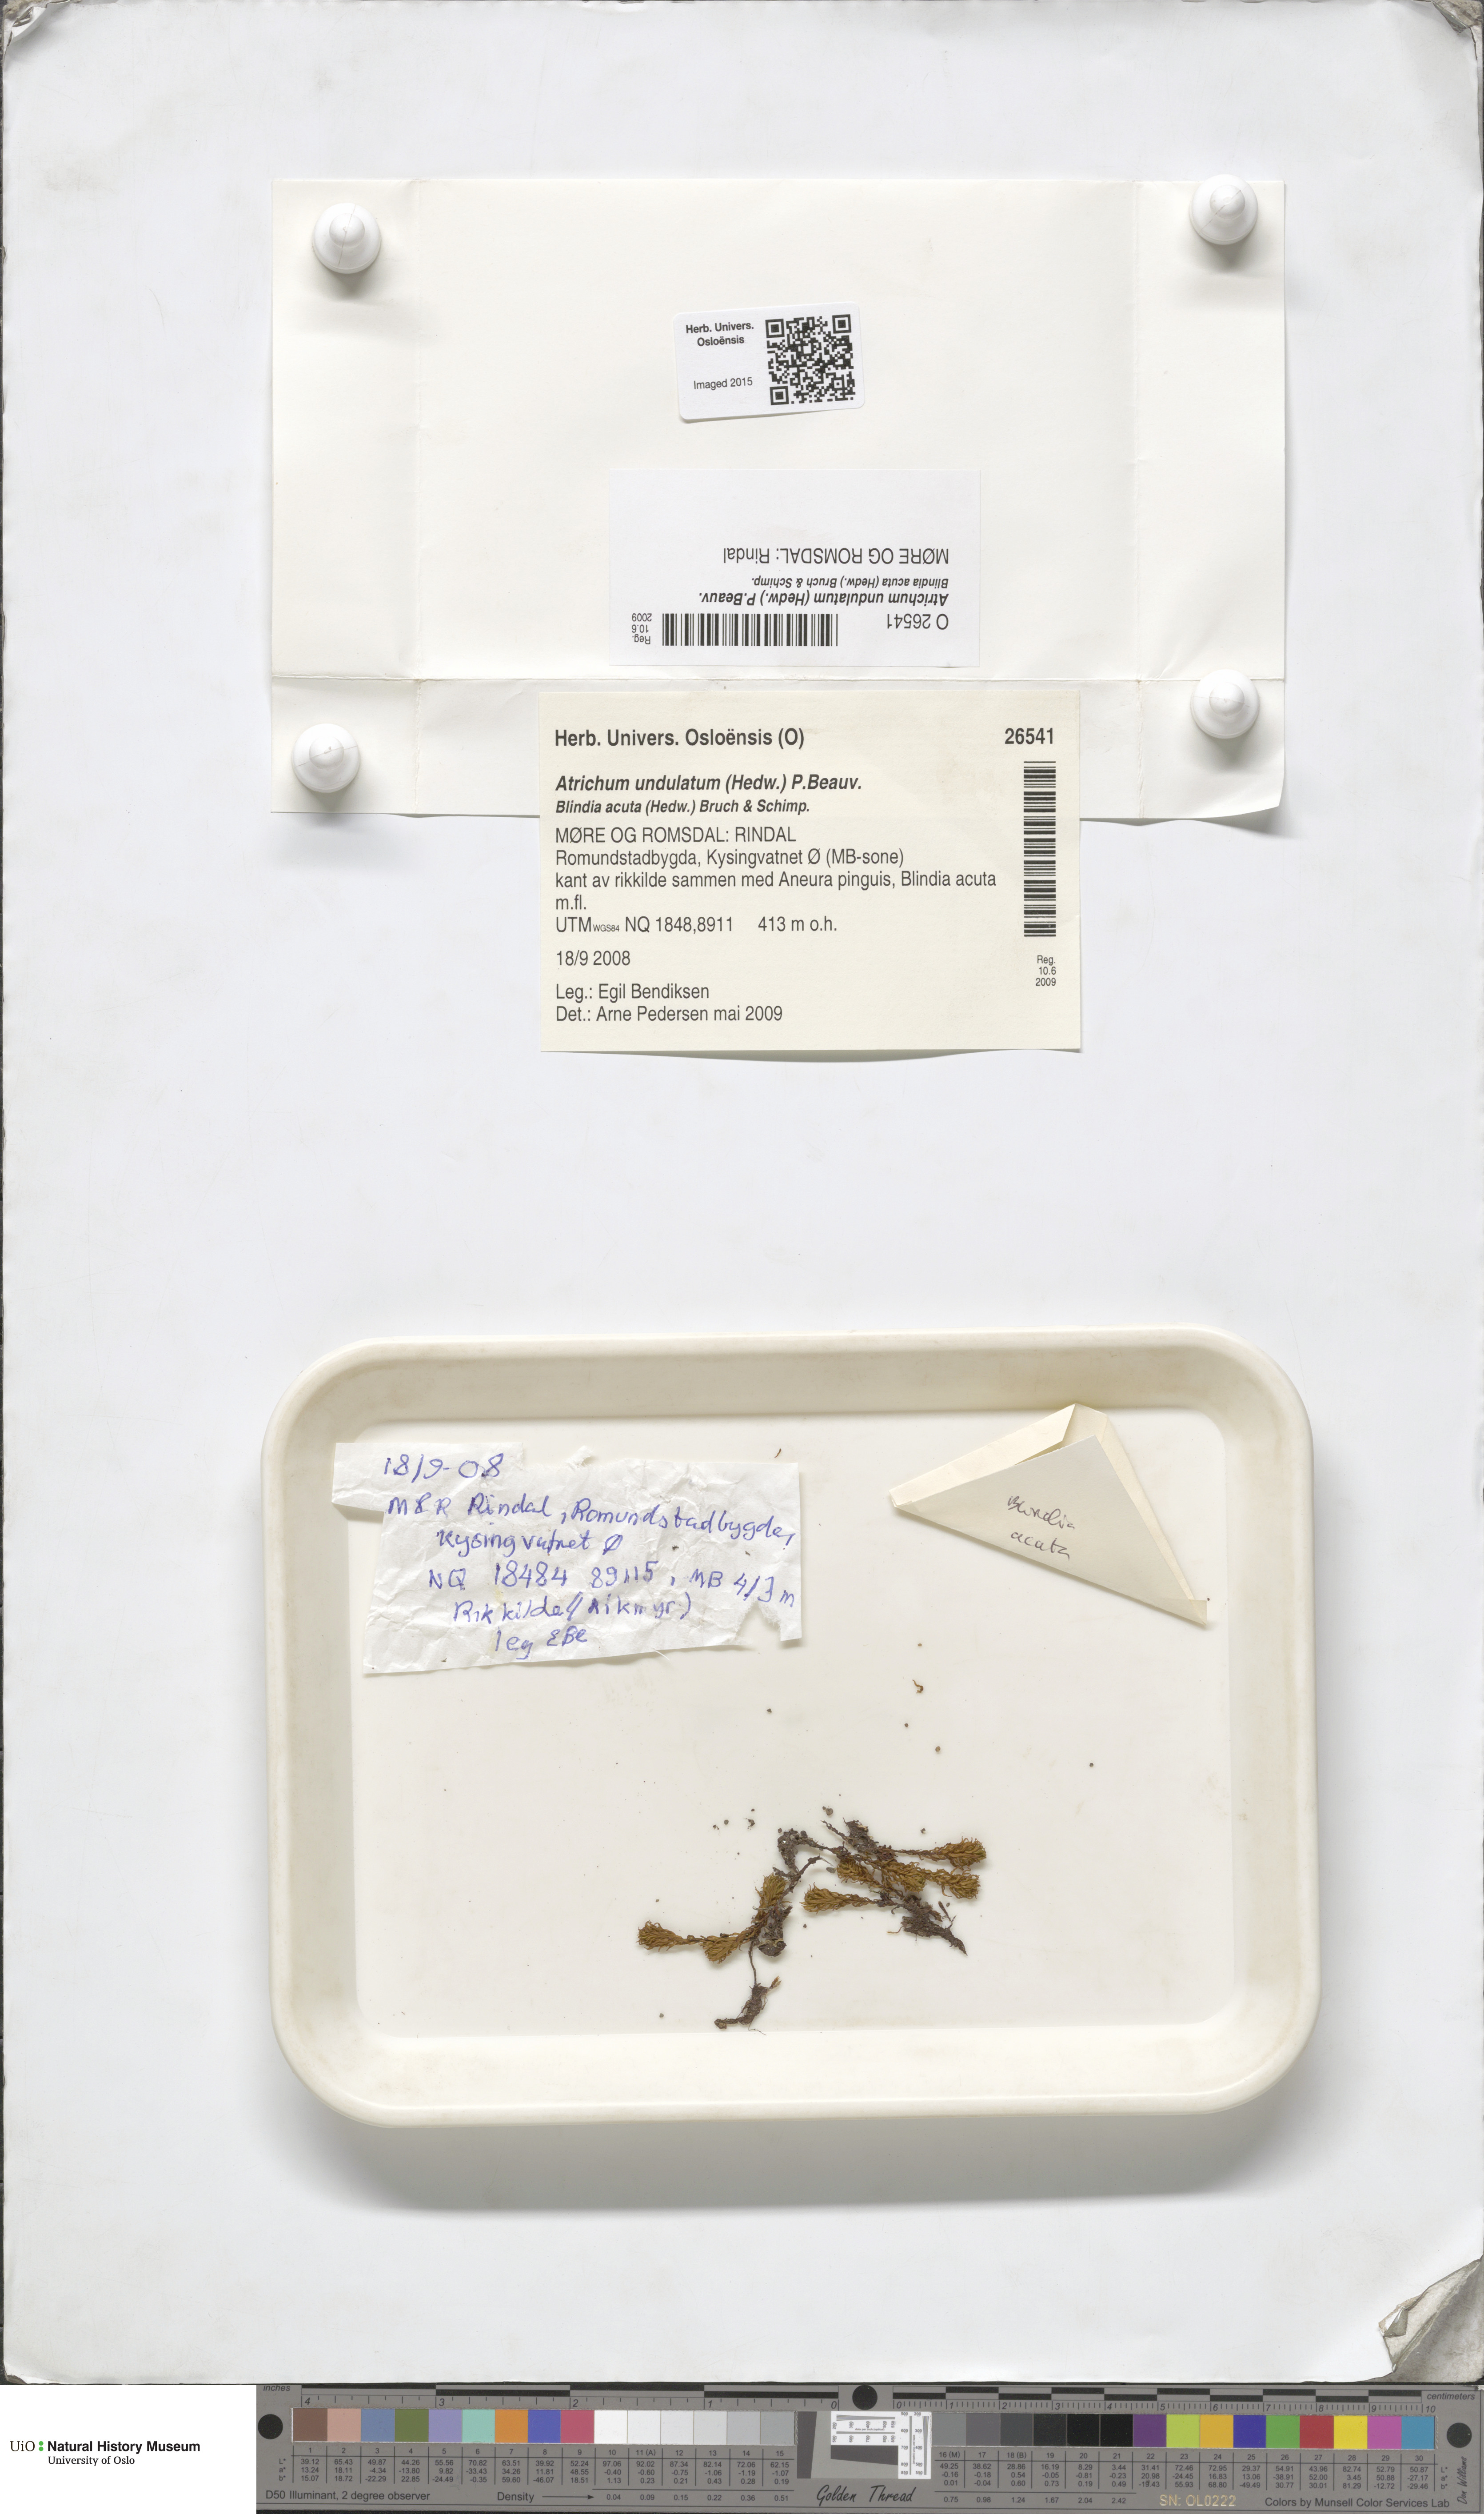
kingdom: Plantae
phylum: Bryophyta
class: Polytrichopsida
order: Polytrichales
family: Polytrichaceae
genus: Atrichum
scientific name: Atrichum undulatum
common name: Common smoothcap
